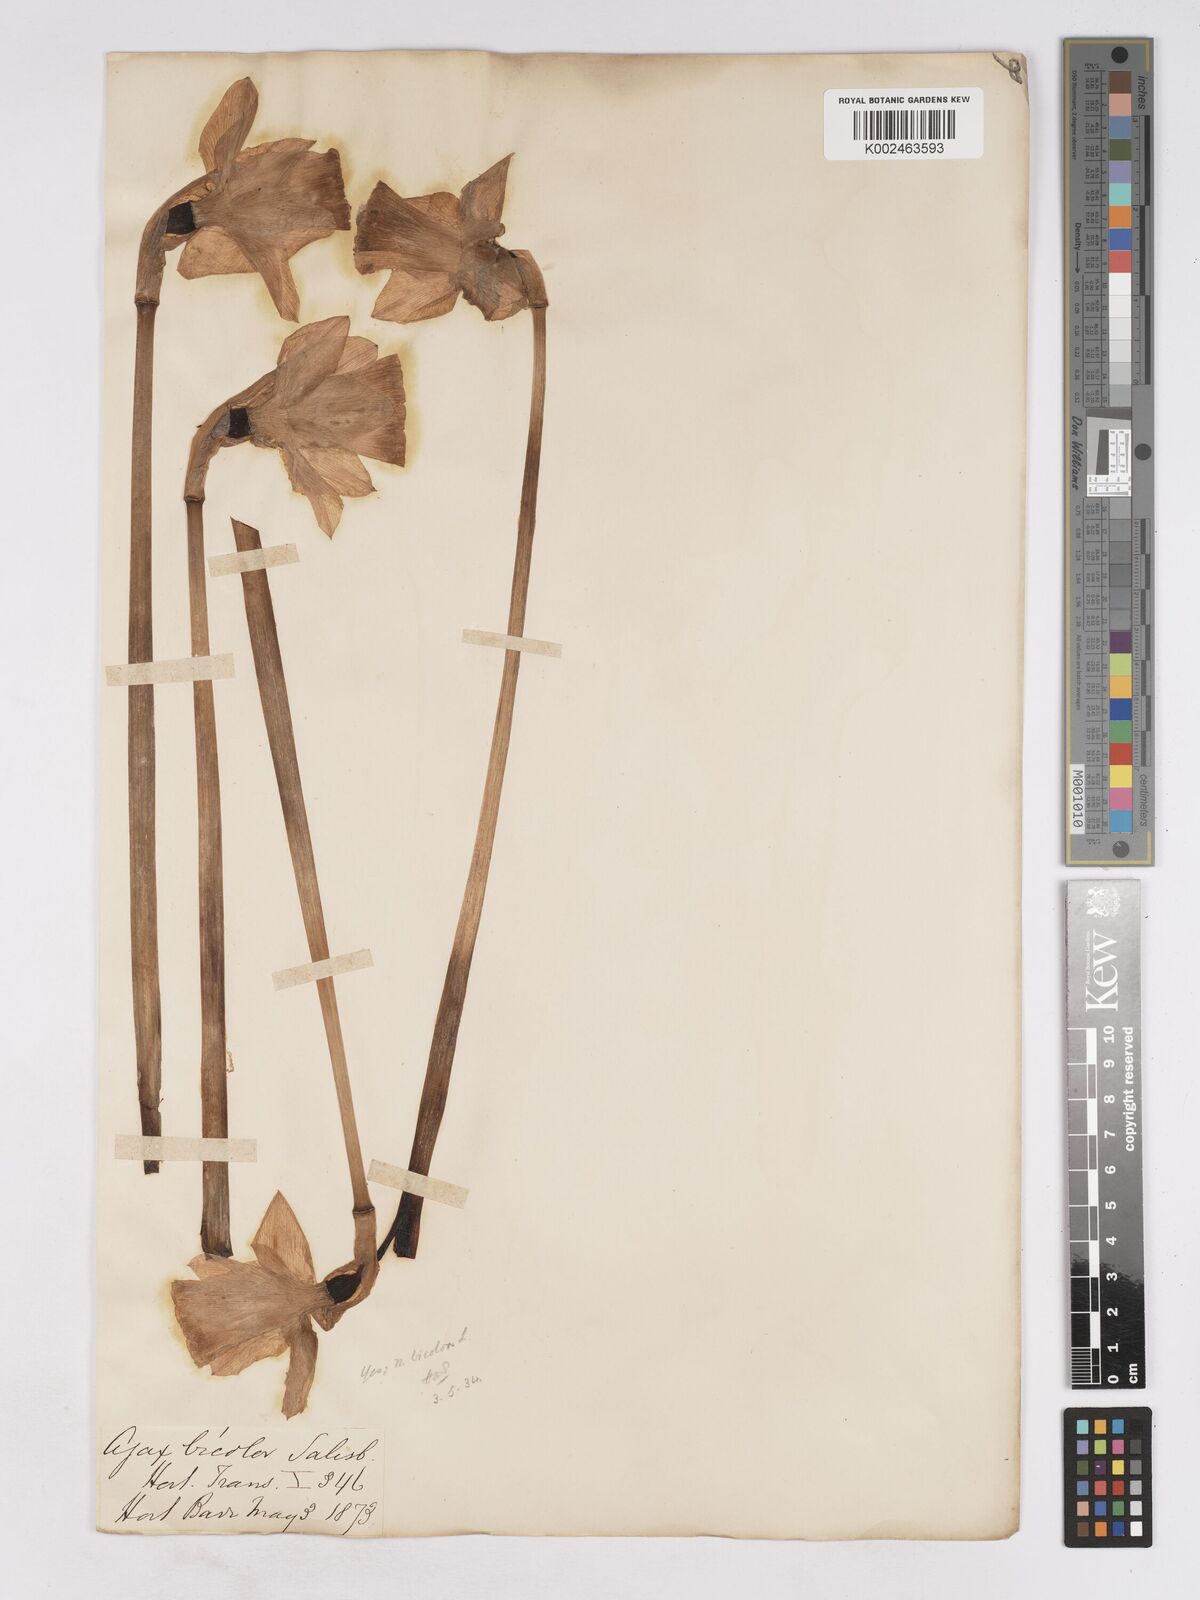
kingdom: Plantae
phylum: Tracheophyta
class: Liliopsida
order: Asparagales
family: Amaryllidaceae
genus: Narcissus
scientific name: Narcissus bicolor
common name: Two-color daffodil
